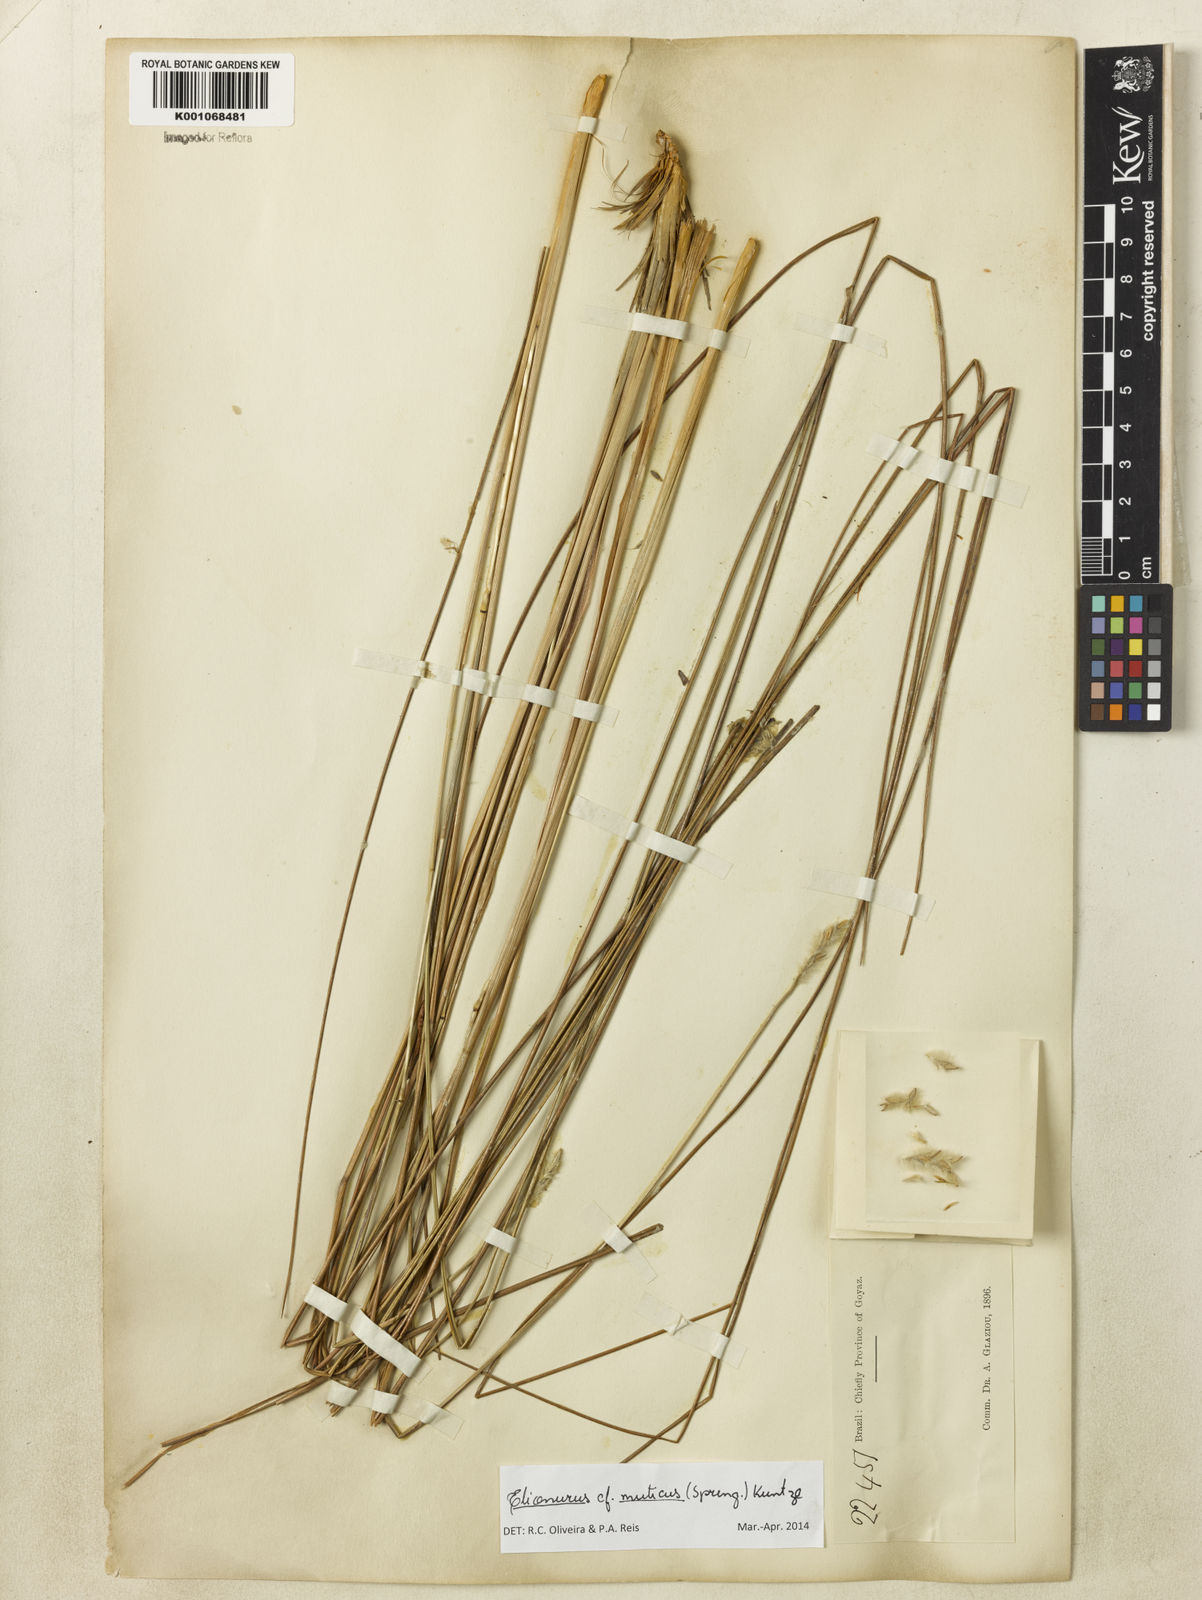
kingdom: Plantae
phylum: Tracheophyta
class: Liliopsida
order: Poales
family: Poaceae
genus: Elionurus
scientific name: Elionurus muticus
